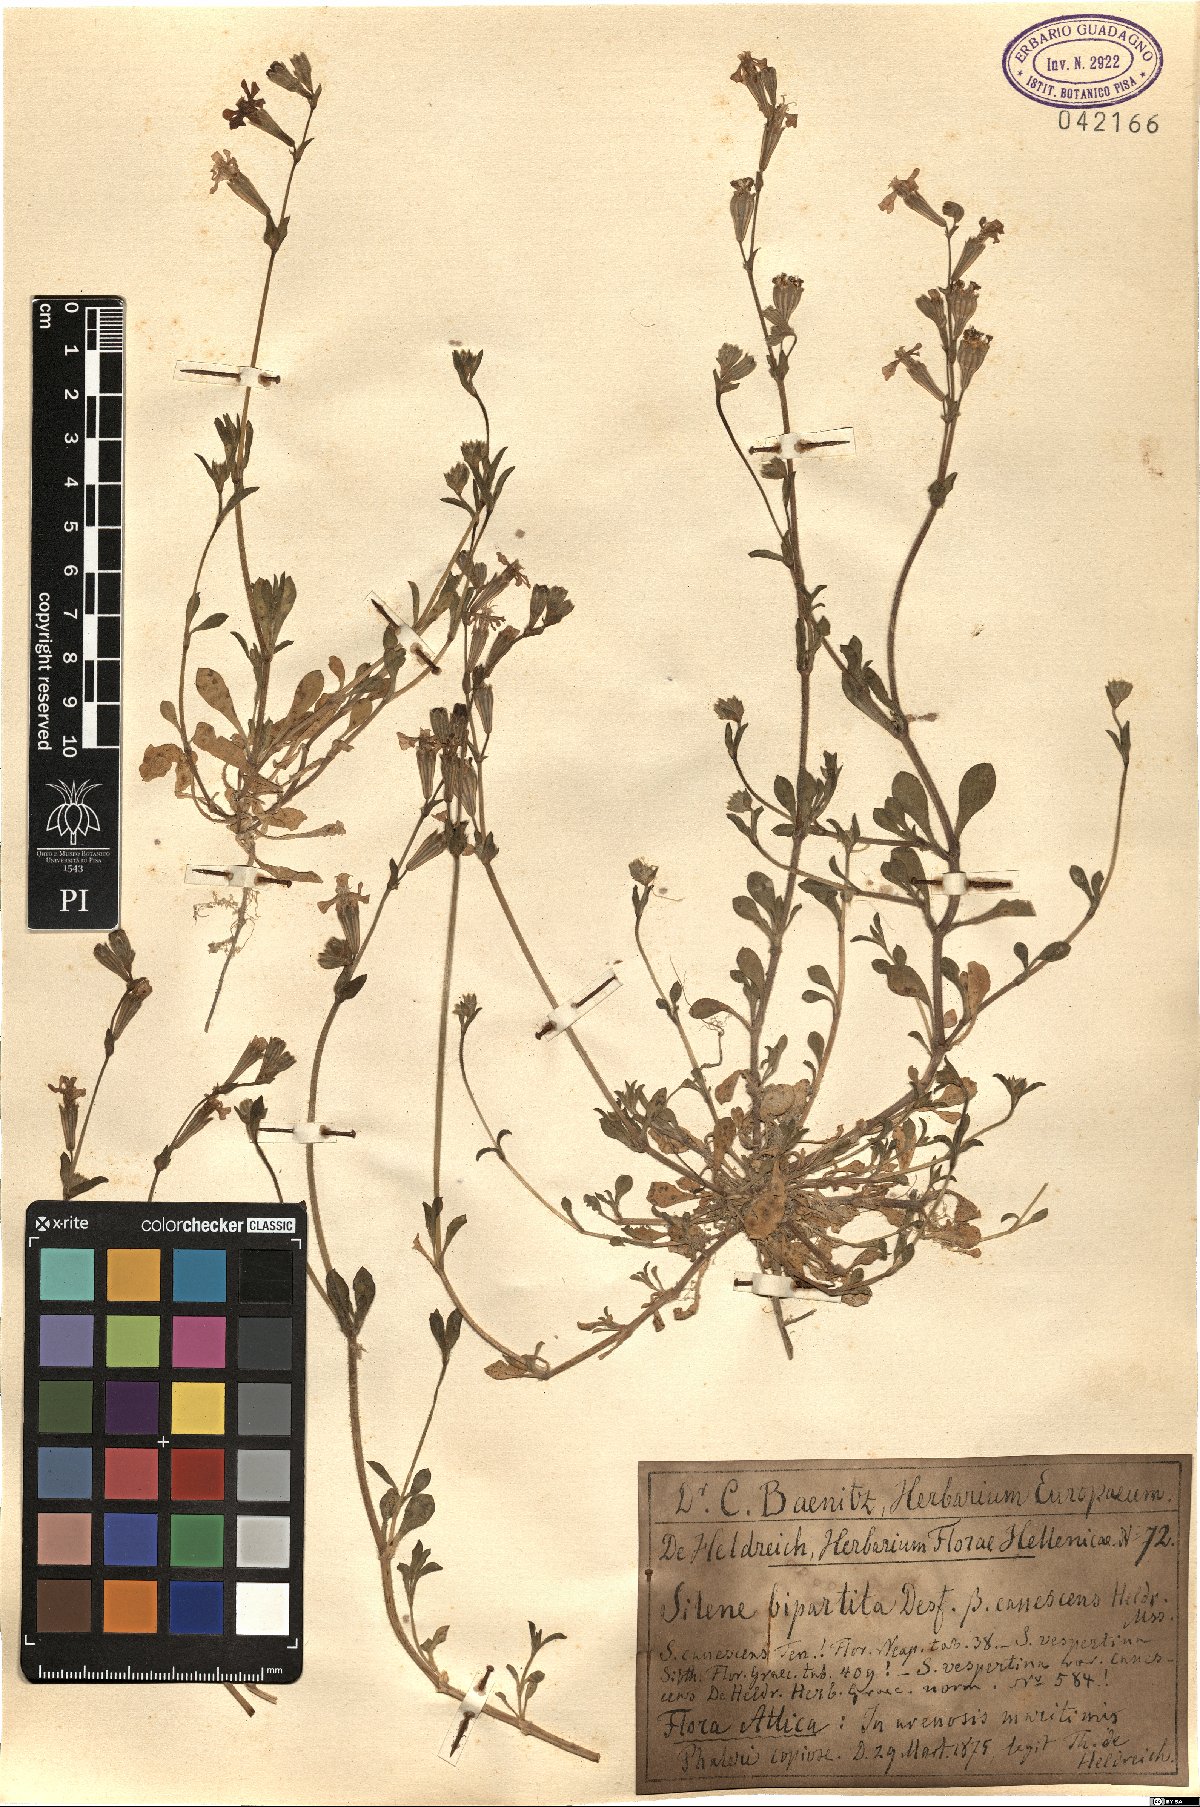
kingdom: Plantae
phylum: Tracheophyta
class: Magnoliopsida
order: Caryophyllales
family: Caryophyllaceae
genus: Silene
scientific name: Silene colorata
